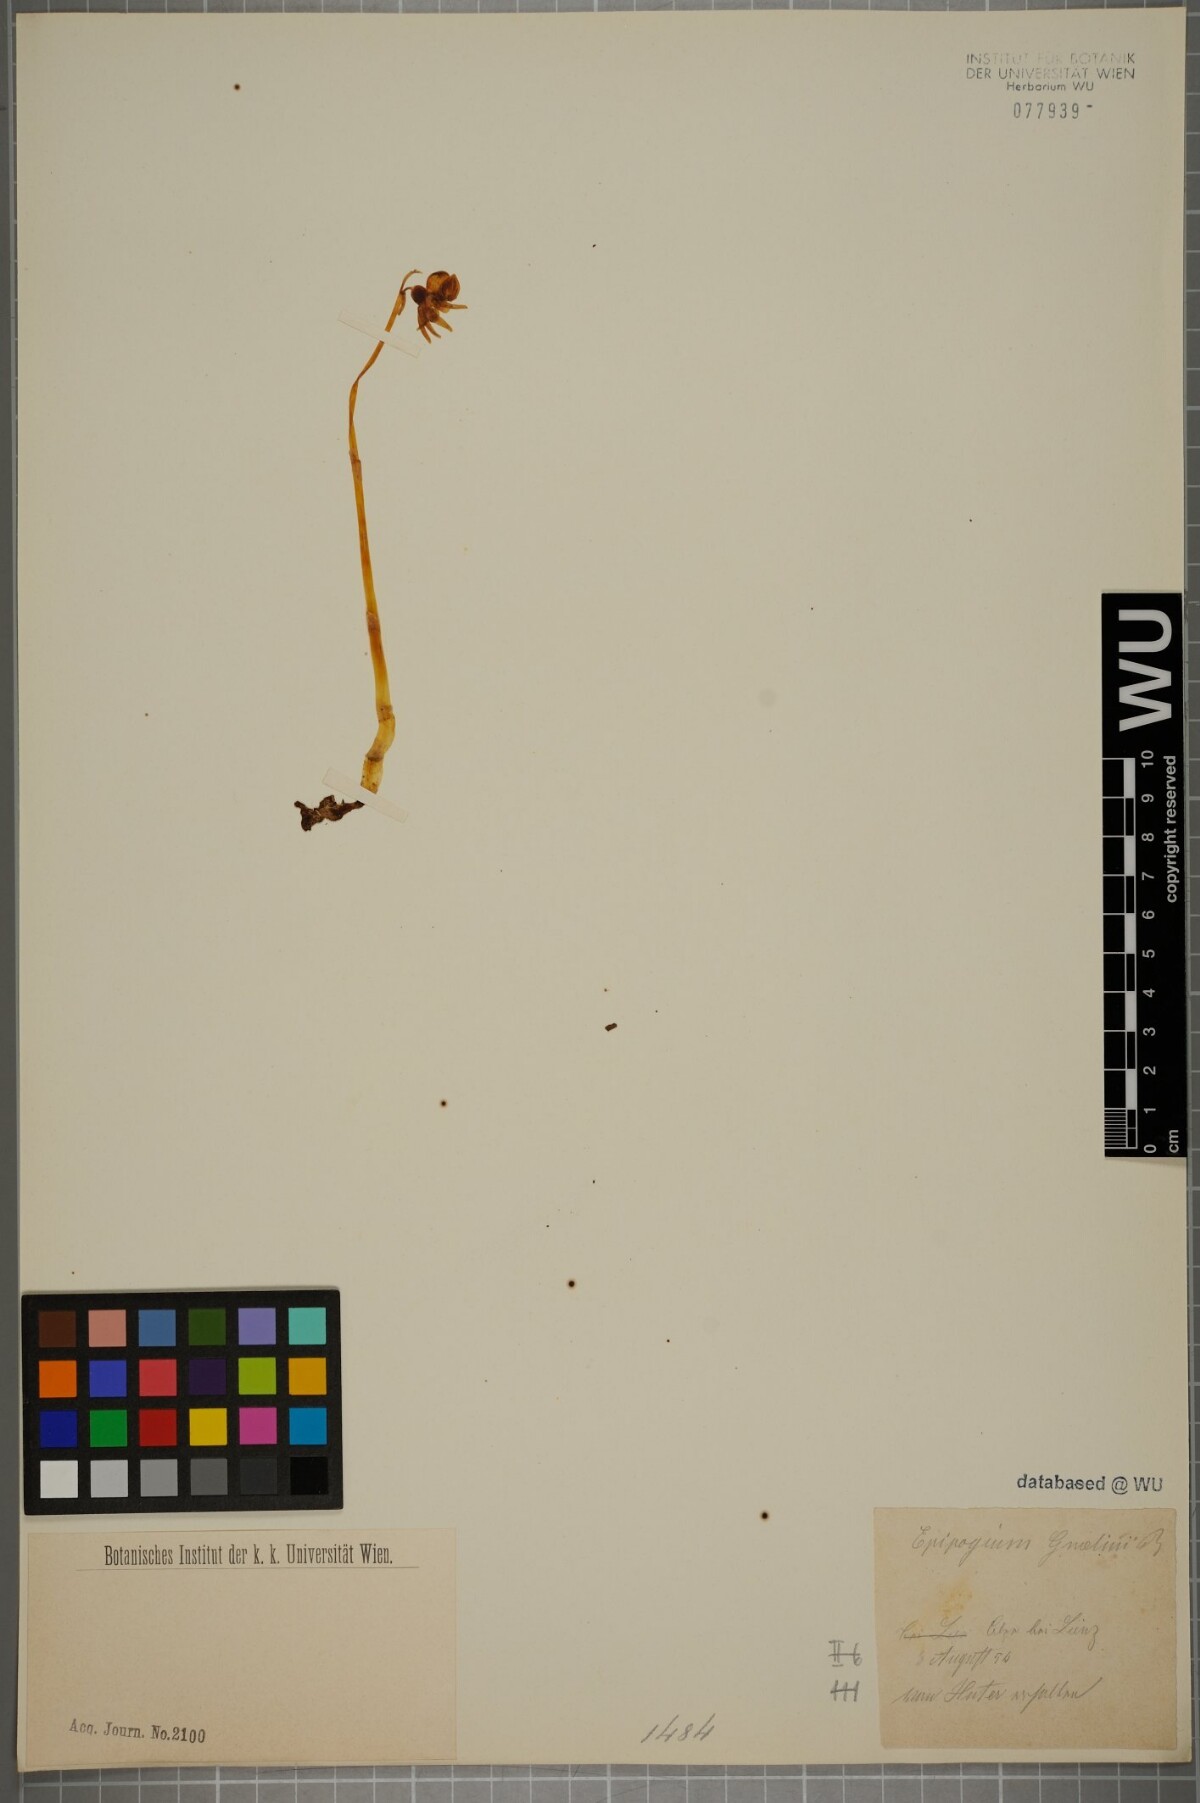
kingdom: Plantae
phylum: Tracheophyta
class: Liliopsida
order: Asparagales
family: Orchidaceae
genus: Epipogium
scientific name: Epipogium aphyllum
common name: Ghost orchid
